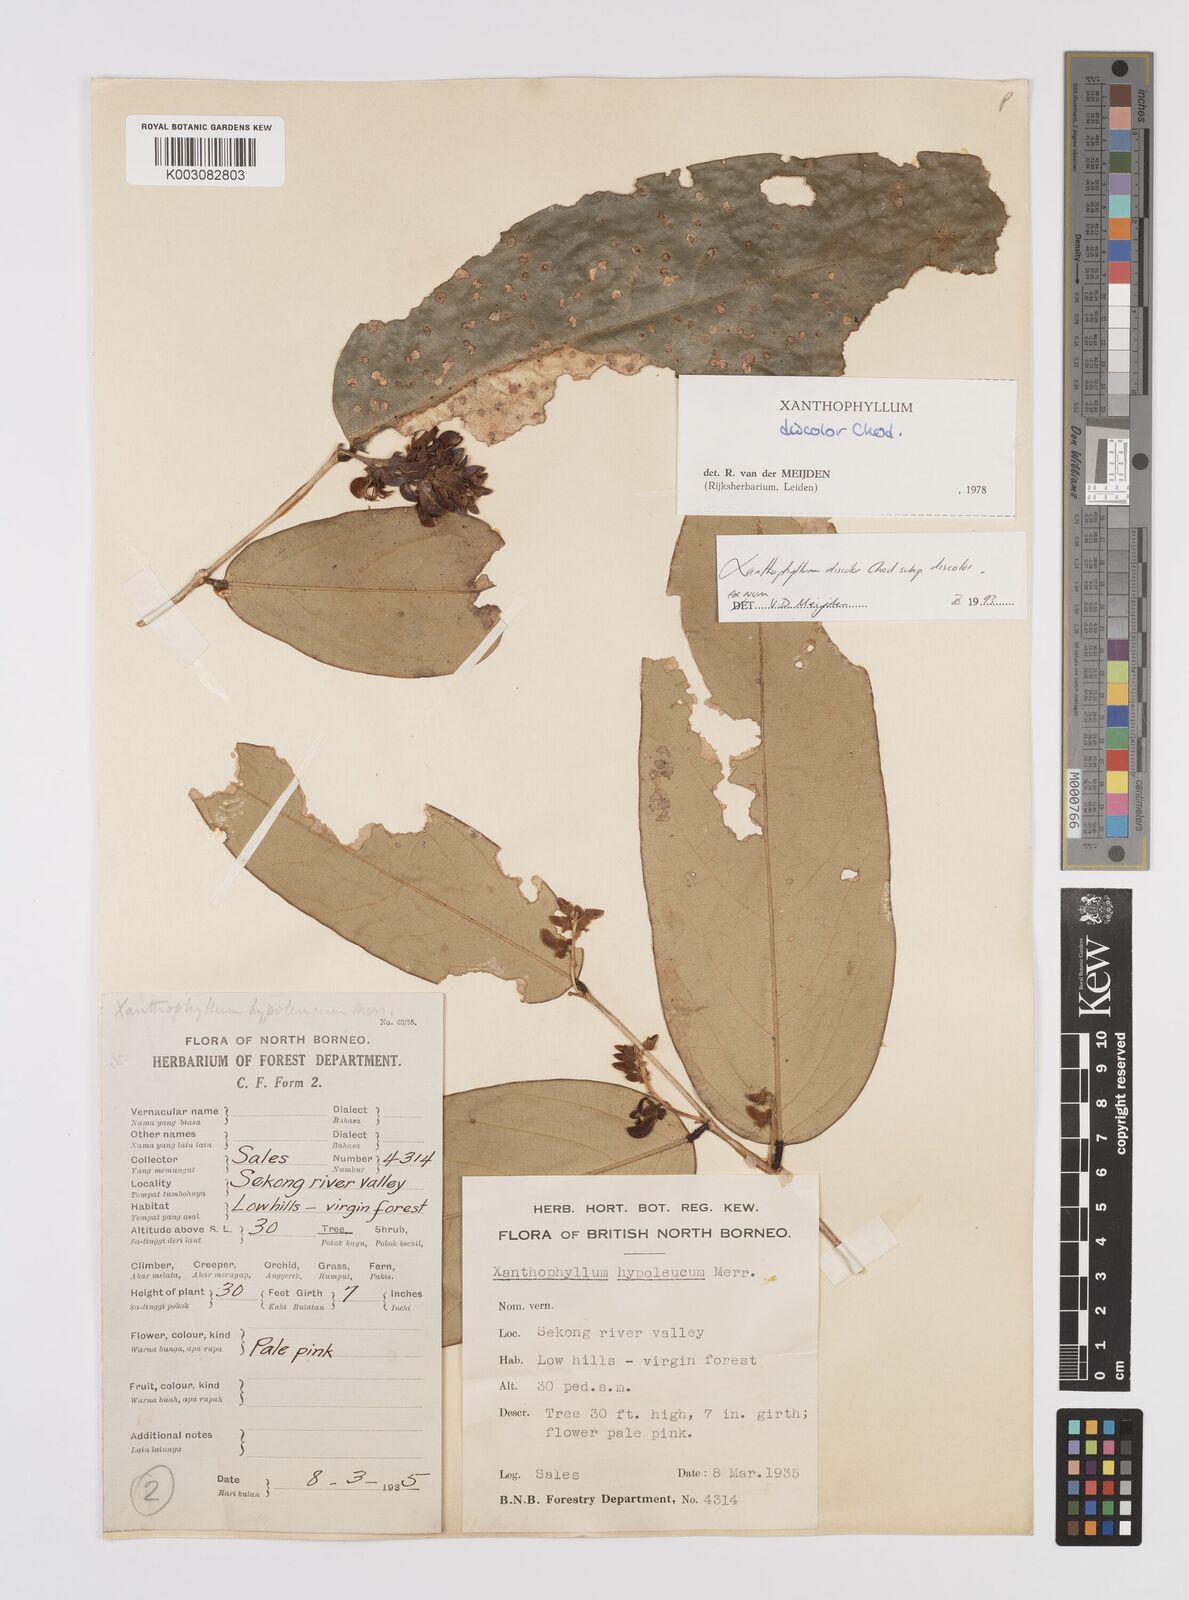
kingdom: Plantae
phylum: Tracheophyta
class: Magnoliopsida
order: Fabales
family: Polygalaceae
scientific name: Polygalaceae
